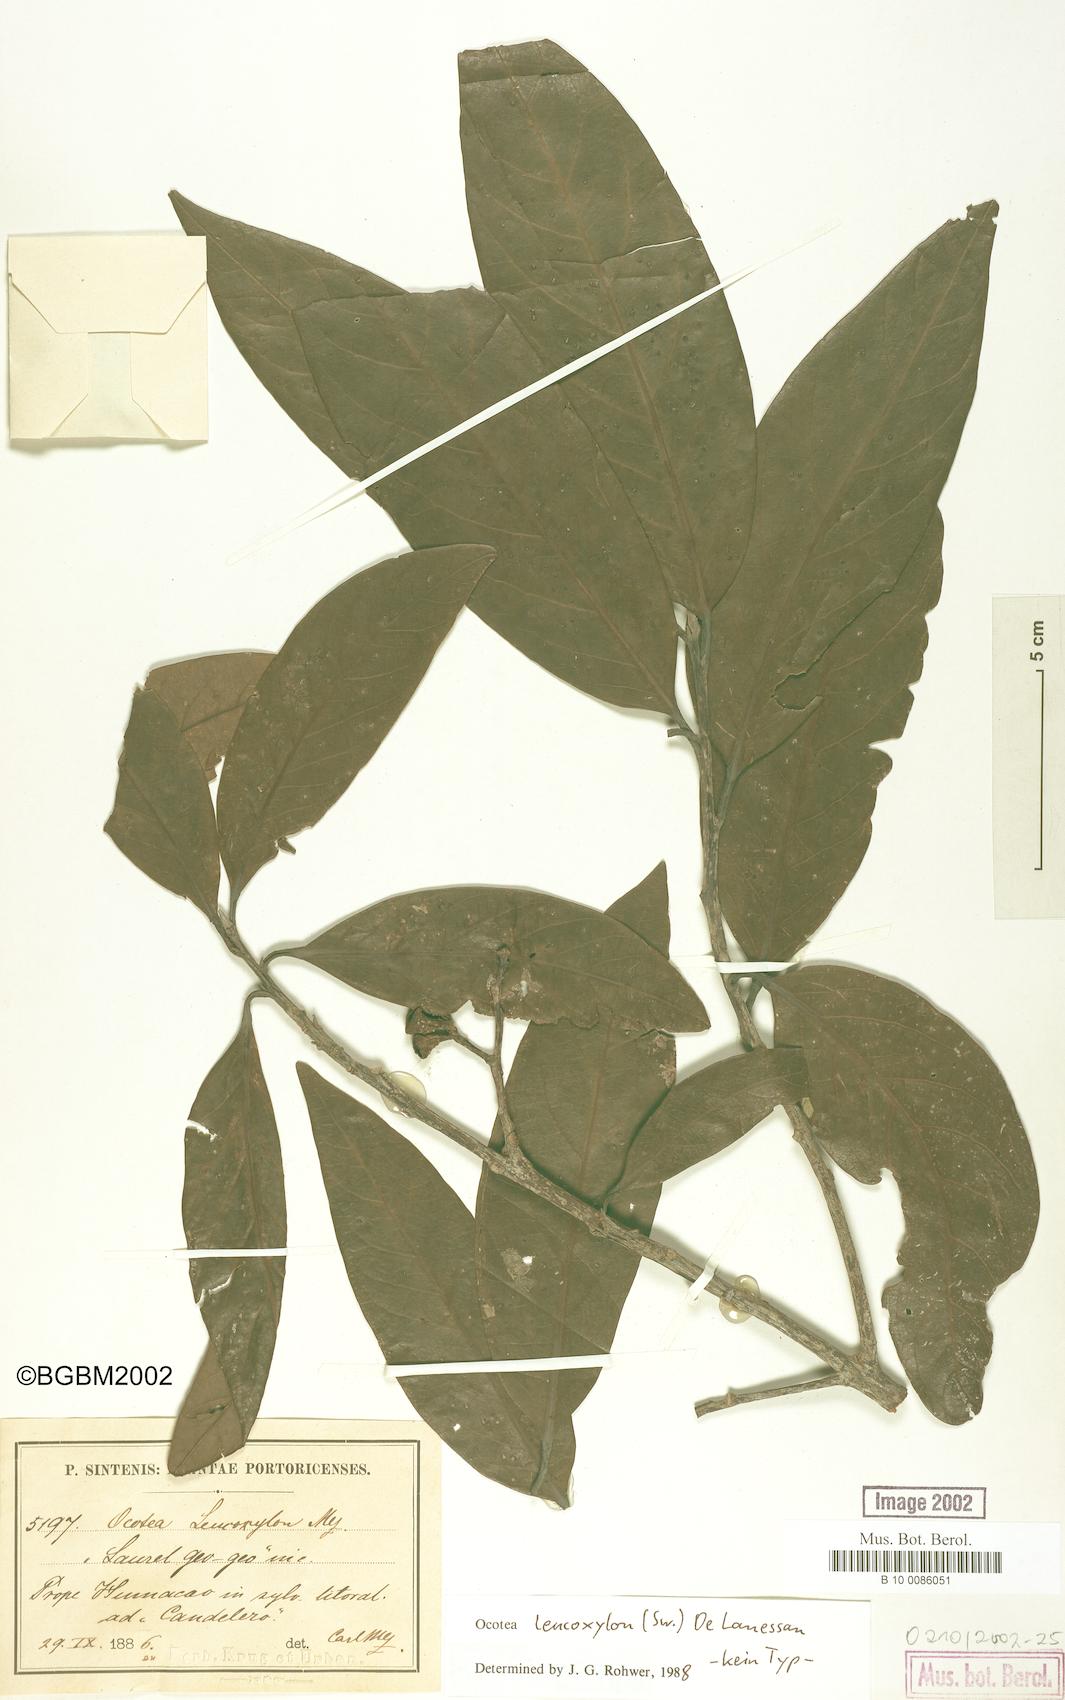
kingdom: Plantae
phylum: Tracheophyta
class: Magnoliopsida
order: Laurales
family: Lauraceae
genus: Ocotea
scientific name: Ocotea leucoxylon
